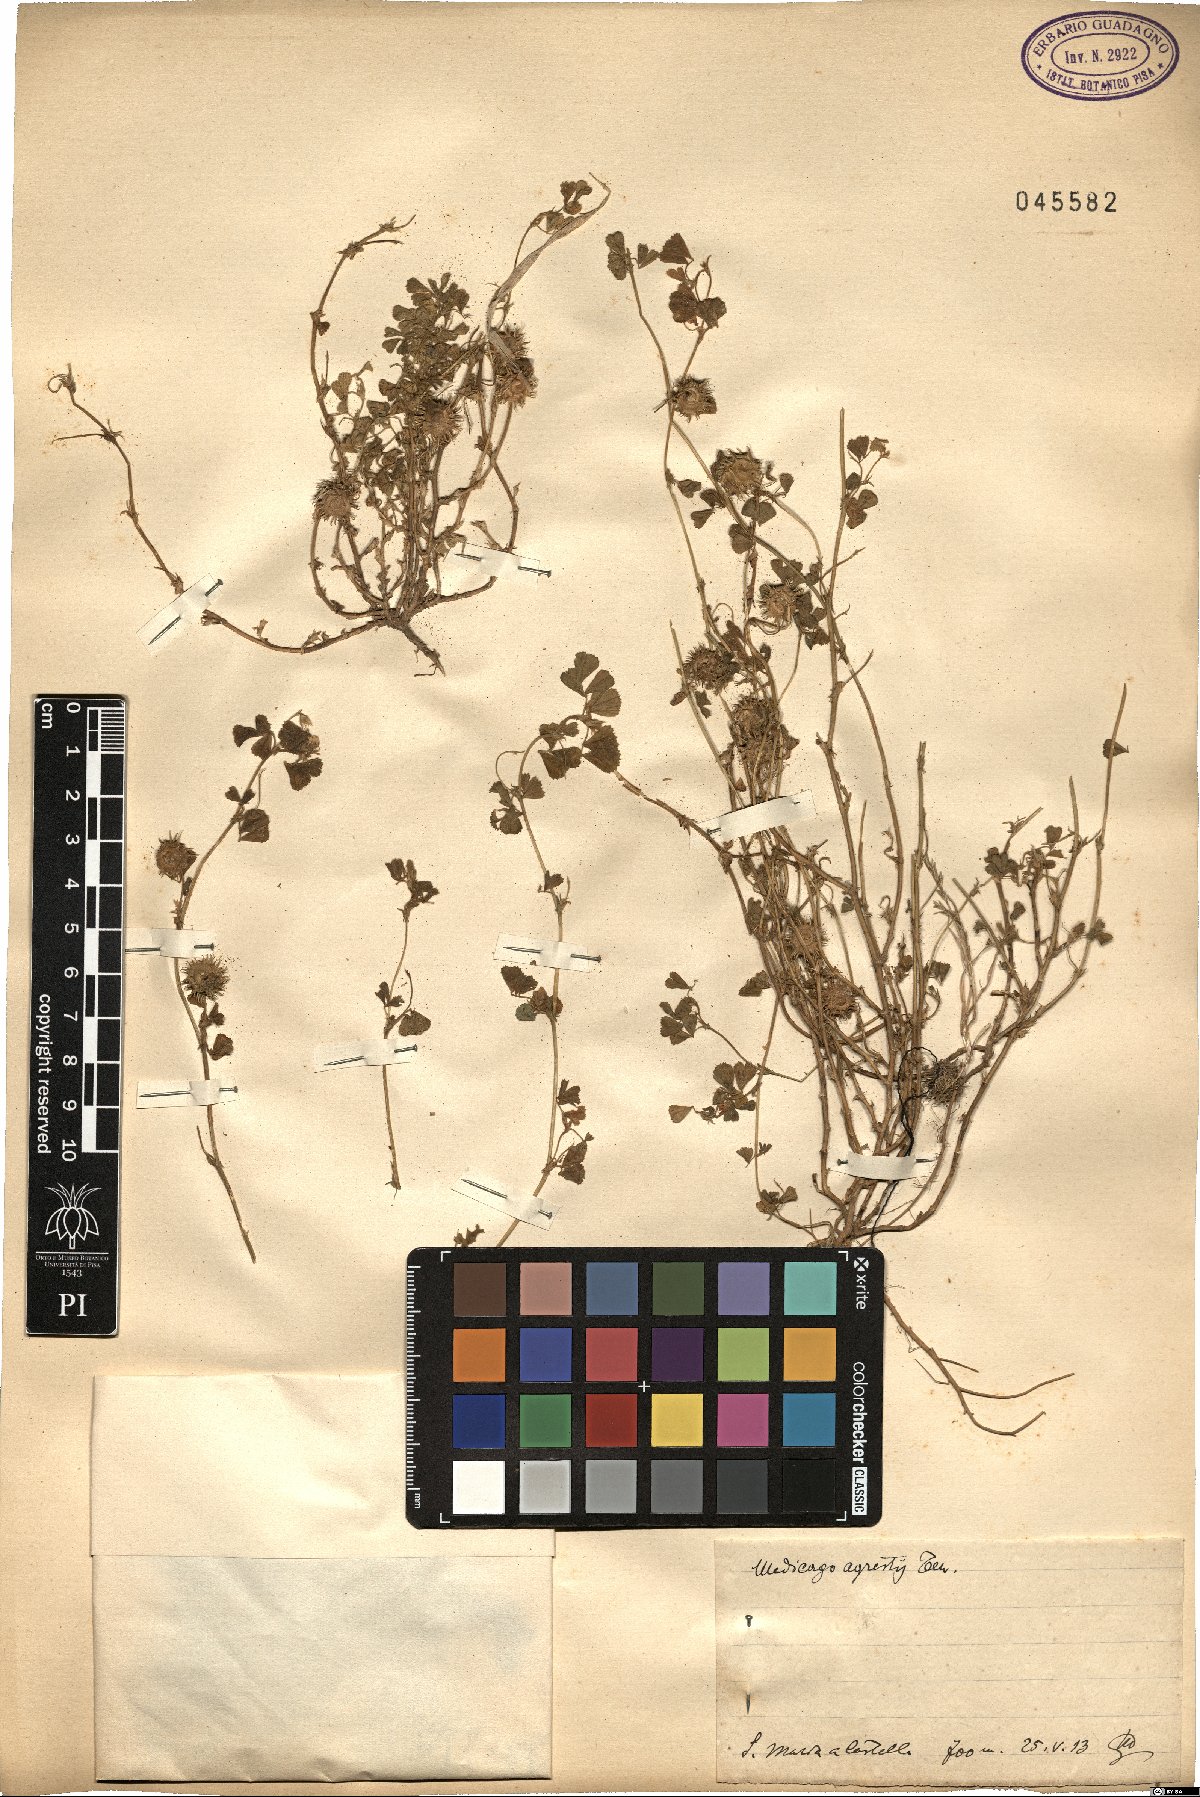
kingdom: Plantae
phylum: Tracheophyta
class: Magnoliopsida
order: Fabales
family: Fabaceae
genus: Medicago
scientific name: Medicago rigidula
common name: Tifton medic
